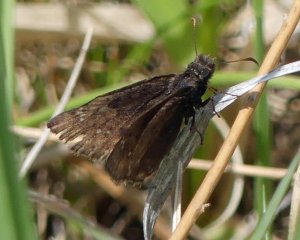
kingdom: Animalia
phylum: Arthropoda
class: Insecta
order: Lepidoptera
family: Hesperiidae
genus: Gesta
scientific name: Gesta
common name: Wild Indigo Duskywing
